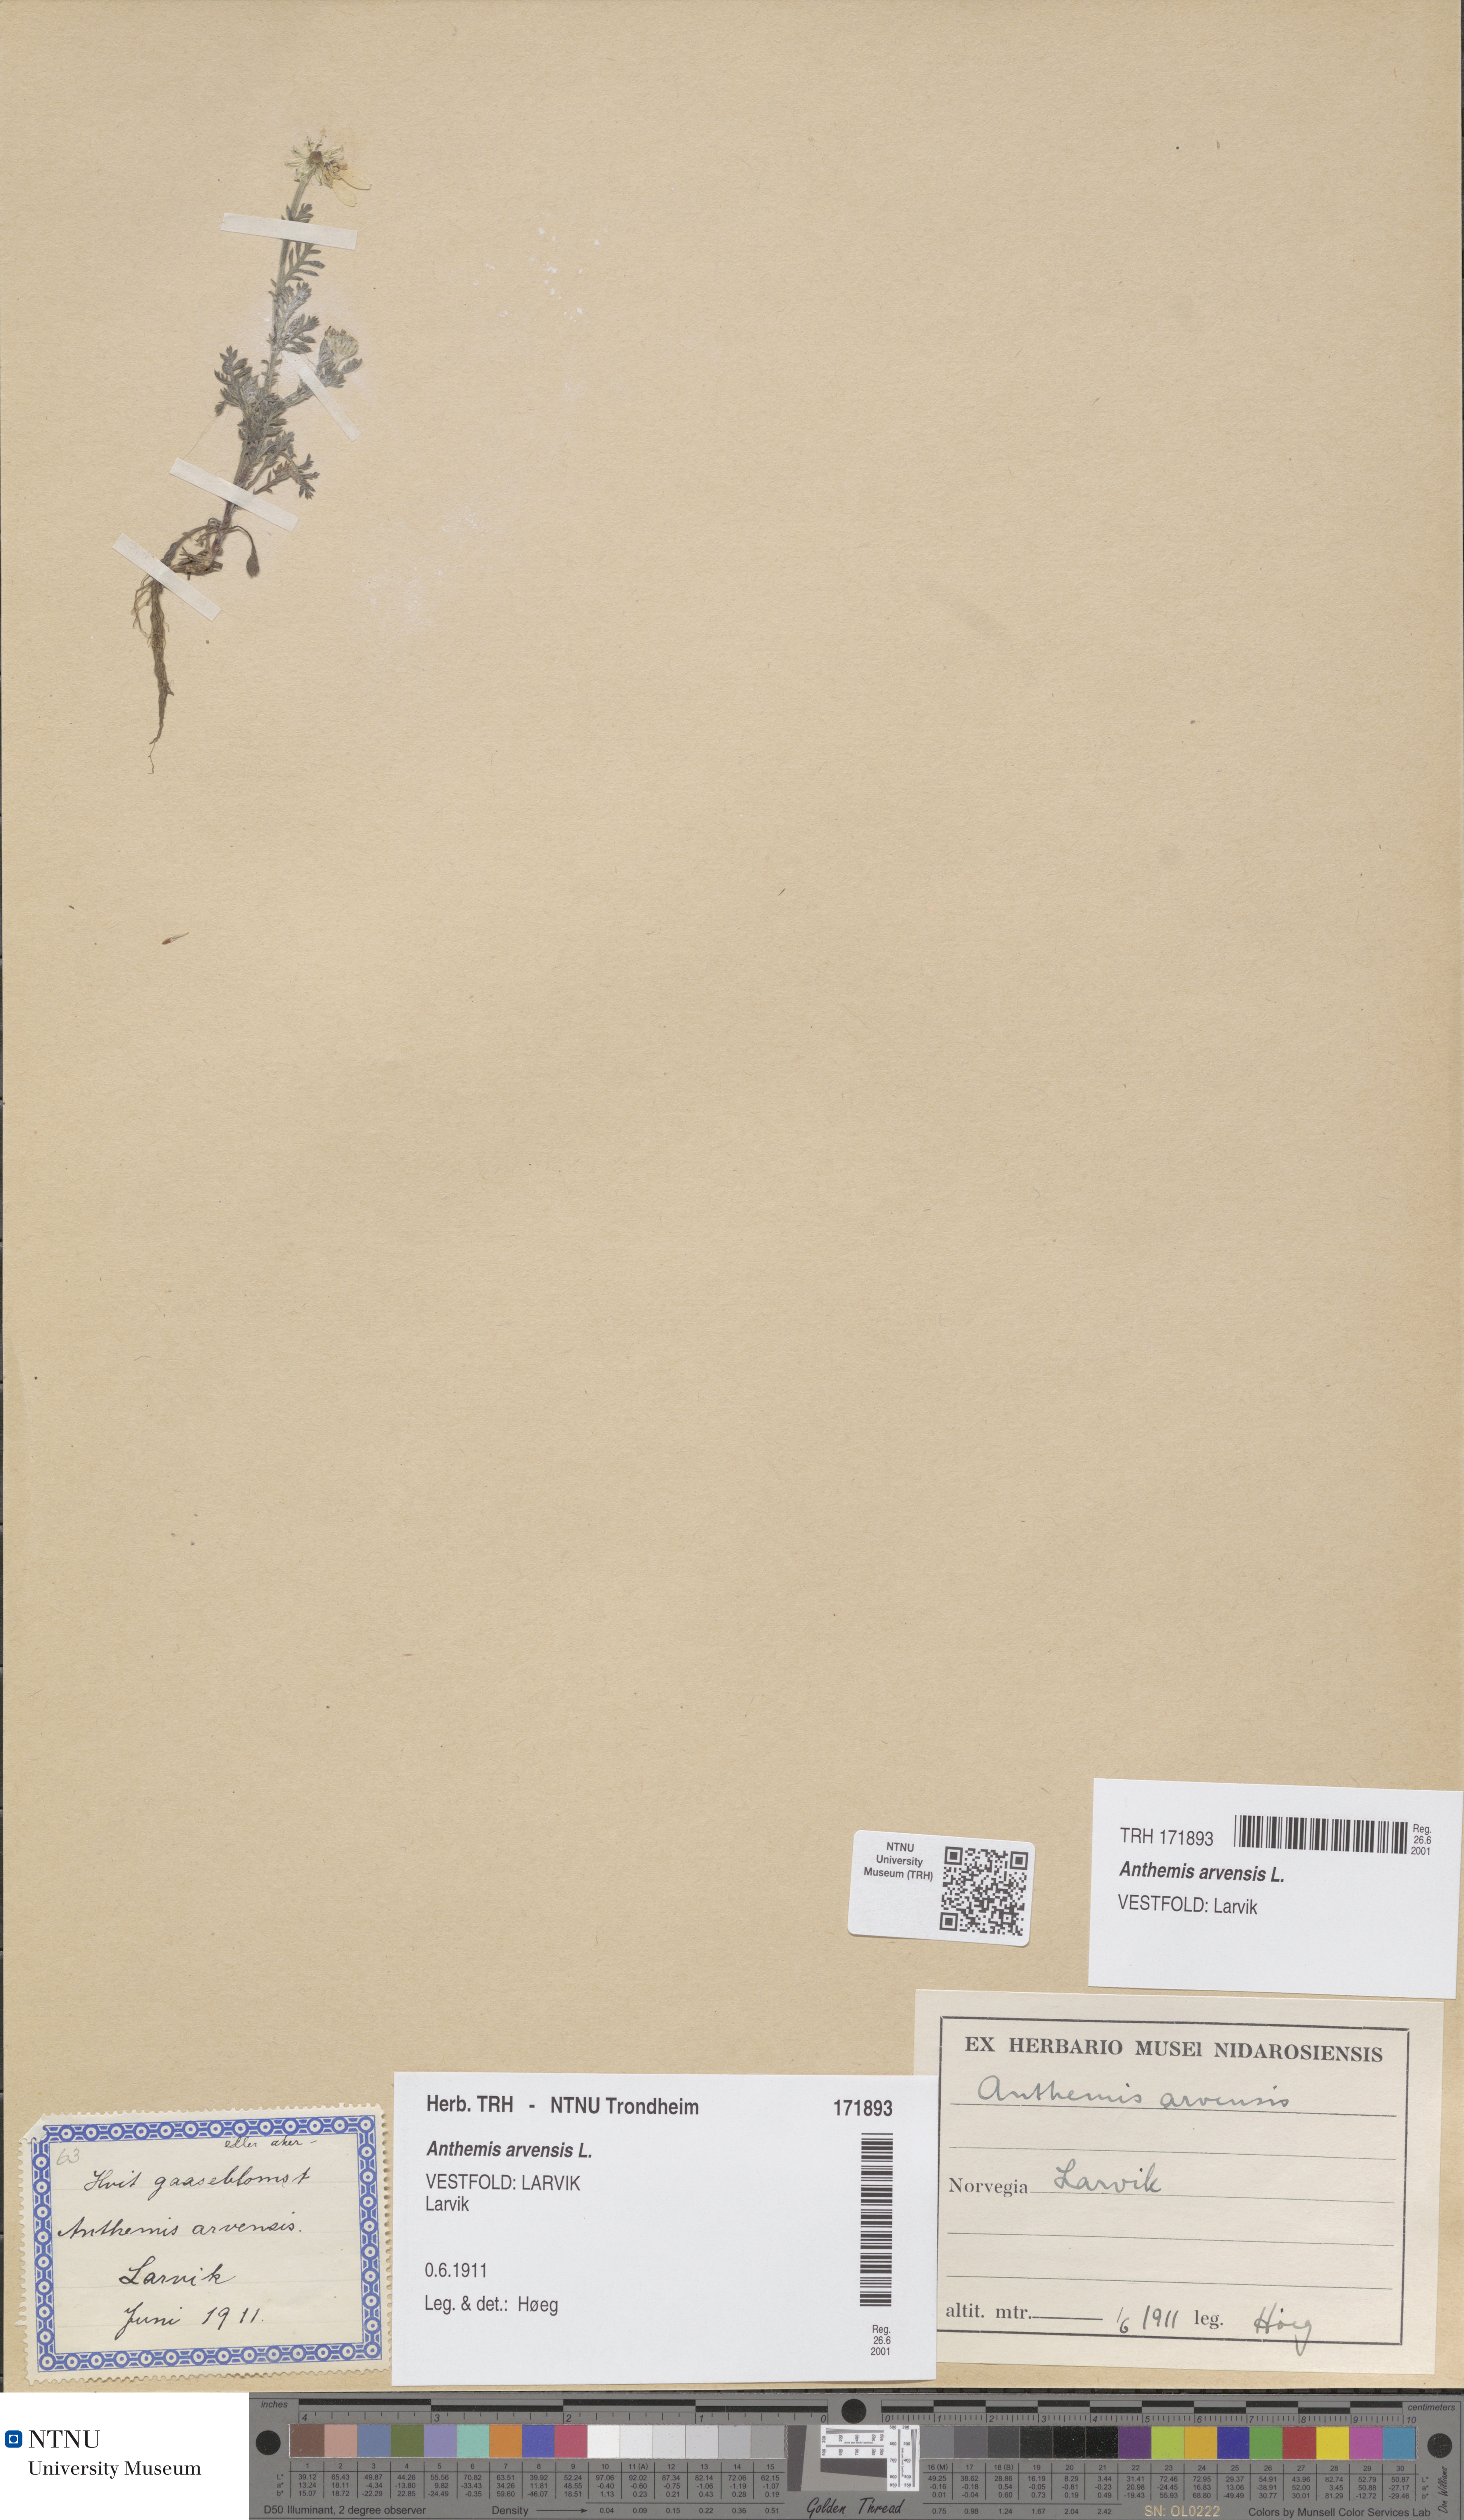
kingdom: Plantae
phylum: Tracheophyta
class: Magnoliopsida
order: Asterales
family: Asteraceae
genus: Anthemis
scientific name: Anthemis arvensis
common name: Corn chamomile
